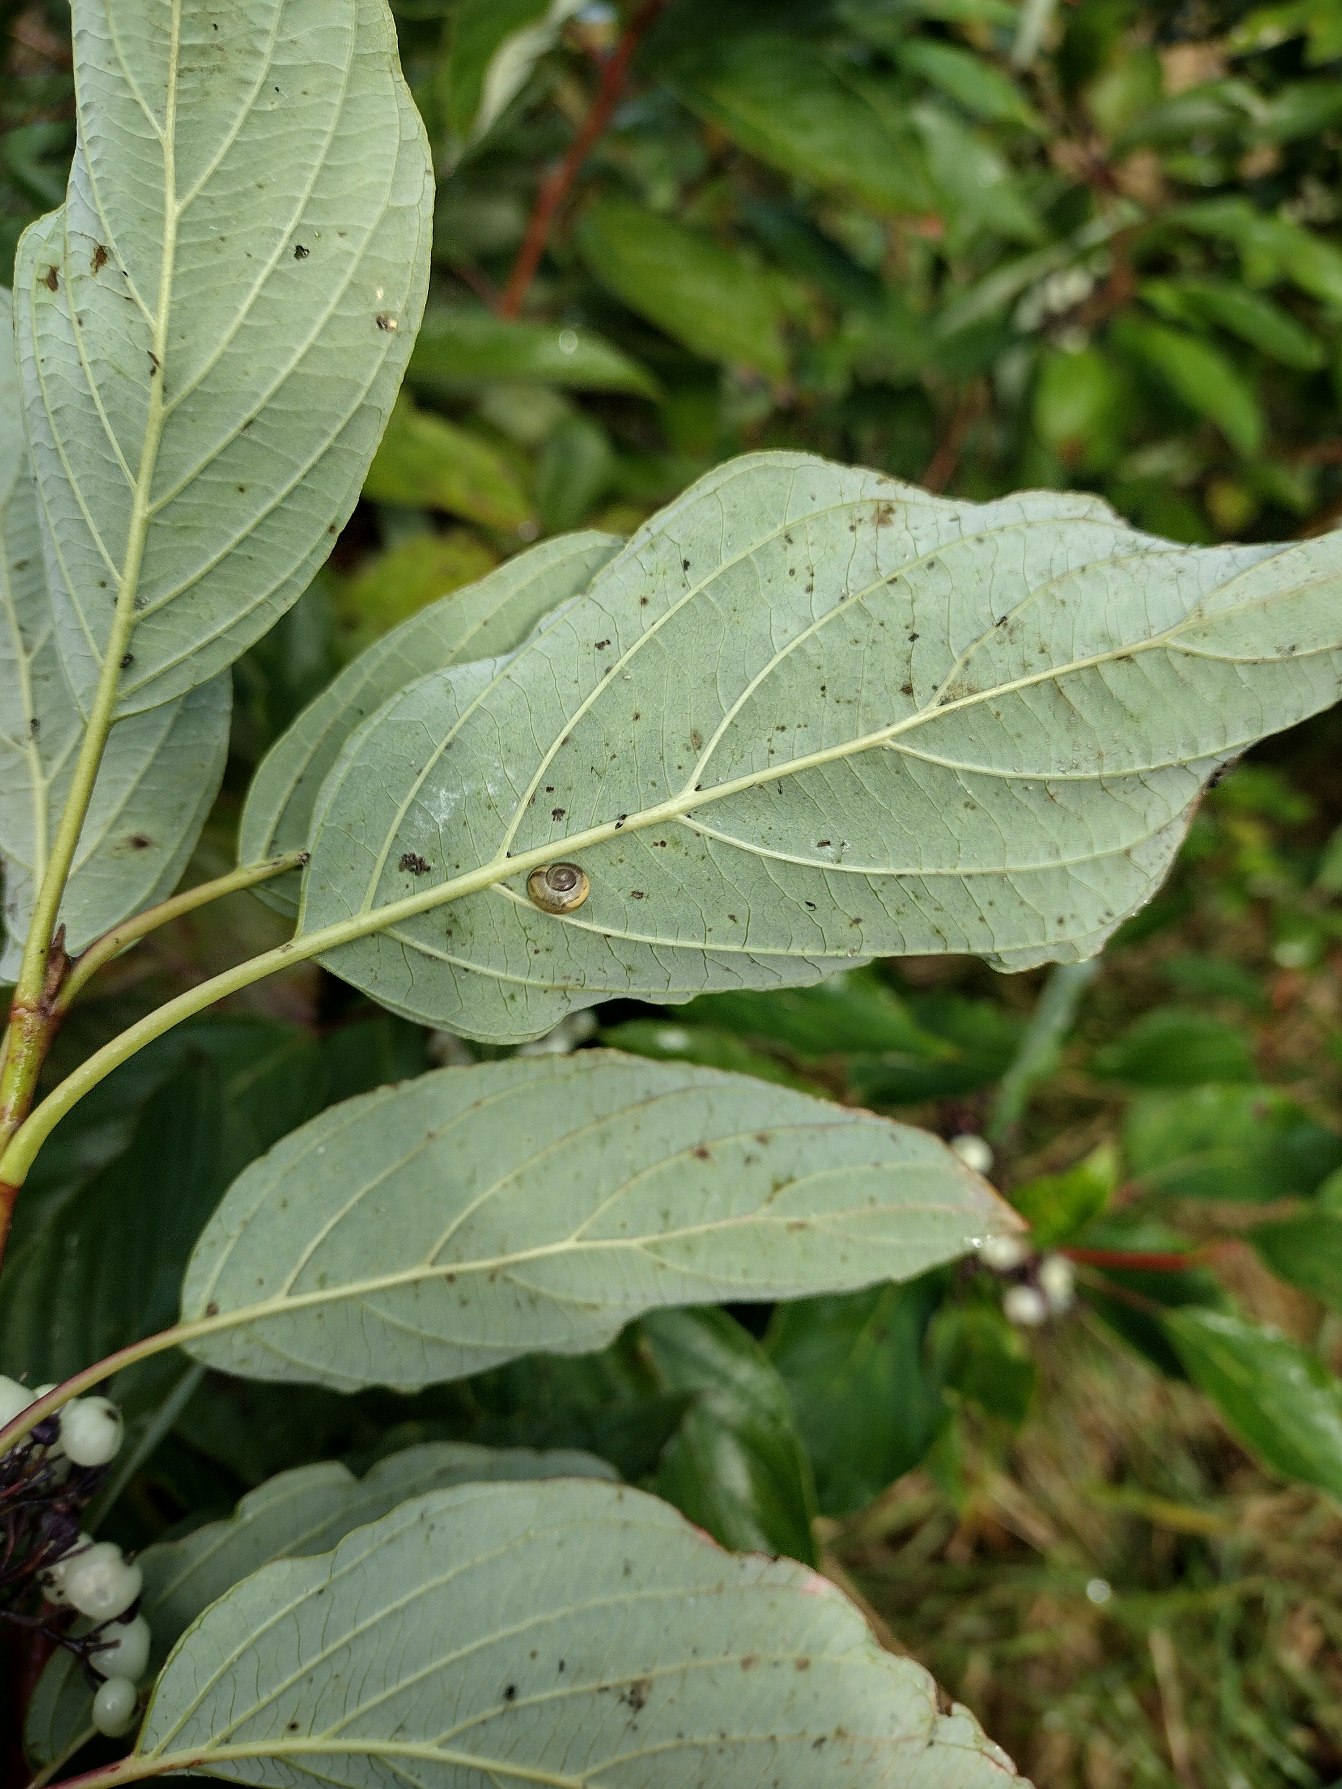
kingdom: Plantae
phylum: Tracheophyta
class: Magnoliopsida
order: Cornales
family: Cornaceae
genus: Cornus
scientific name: Cornus sericea
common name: Krybende kornel
